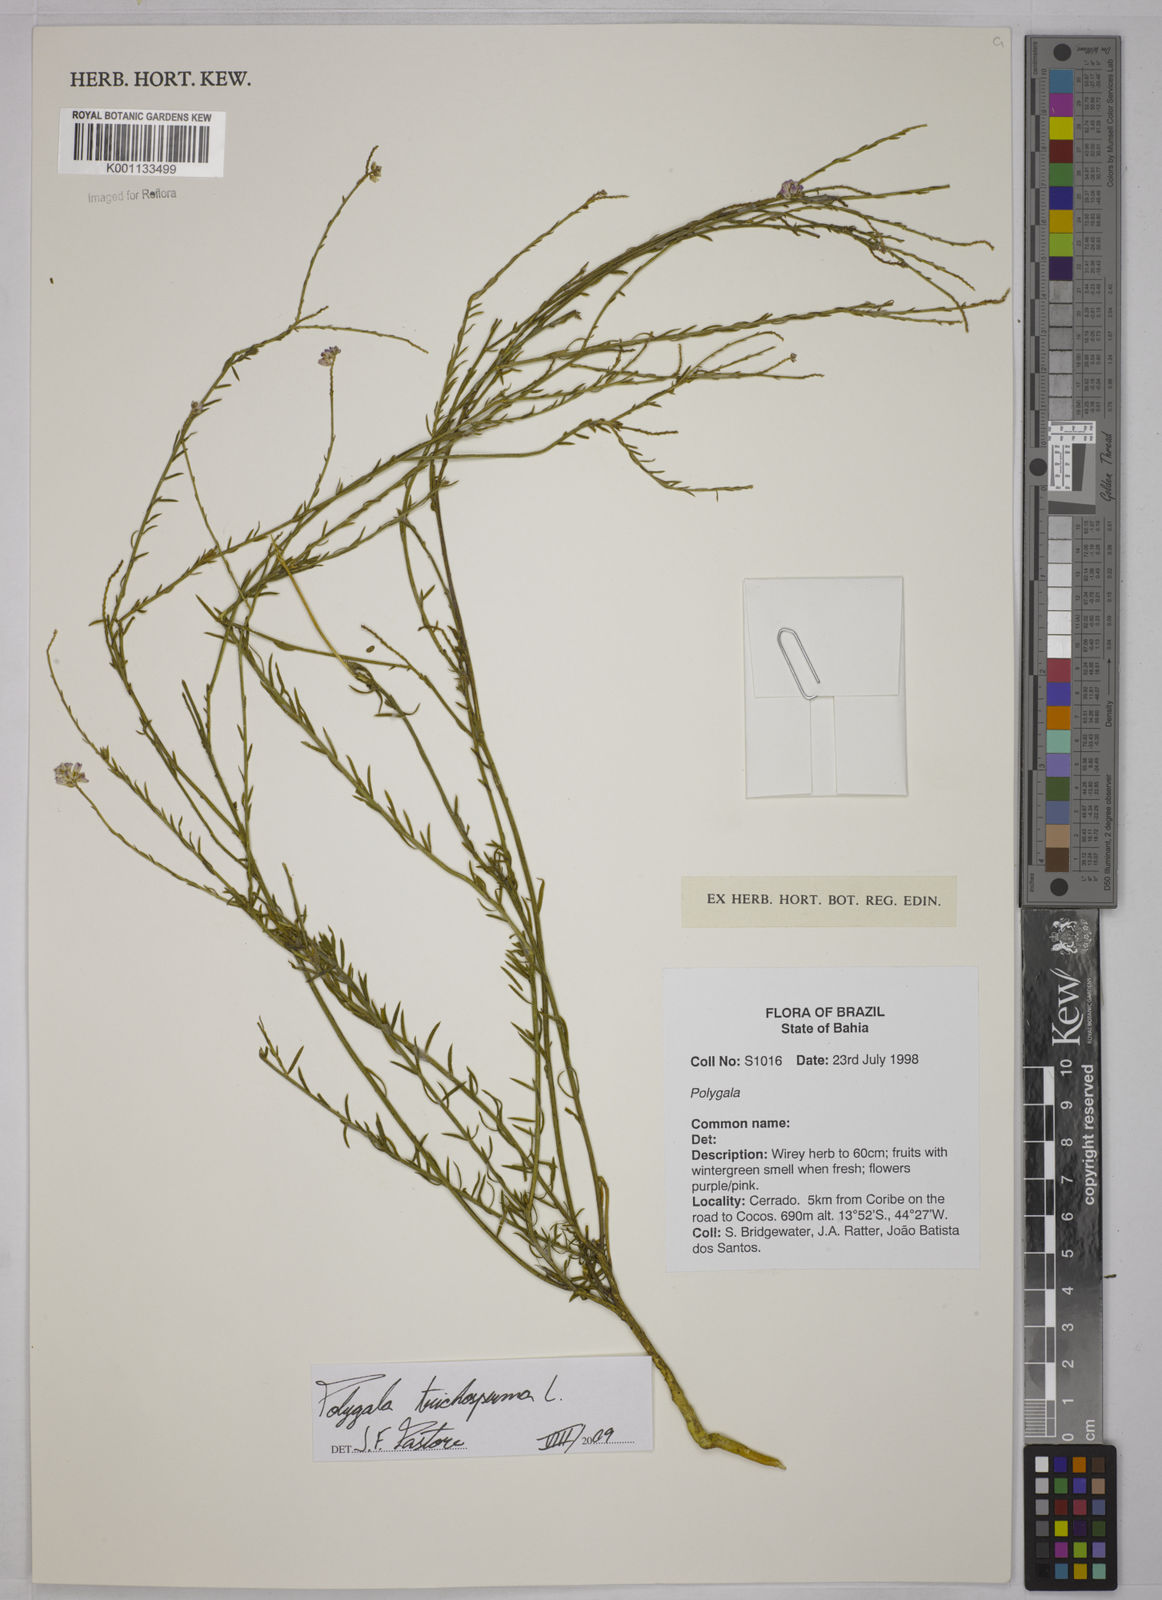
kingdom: Plantae
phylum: Tracheophyta
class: Magnoliopsida
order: Fabales
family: Polygalaceae
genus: Polygala
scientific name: Polygala trichosperma
